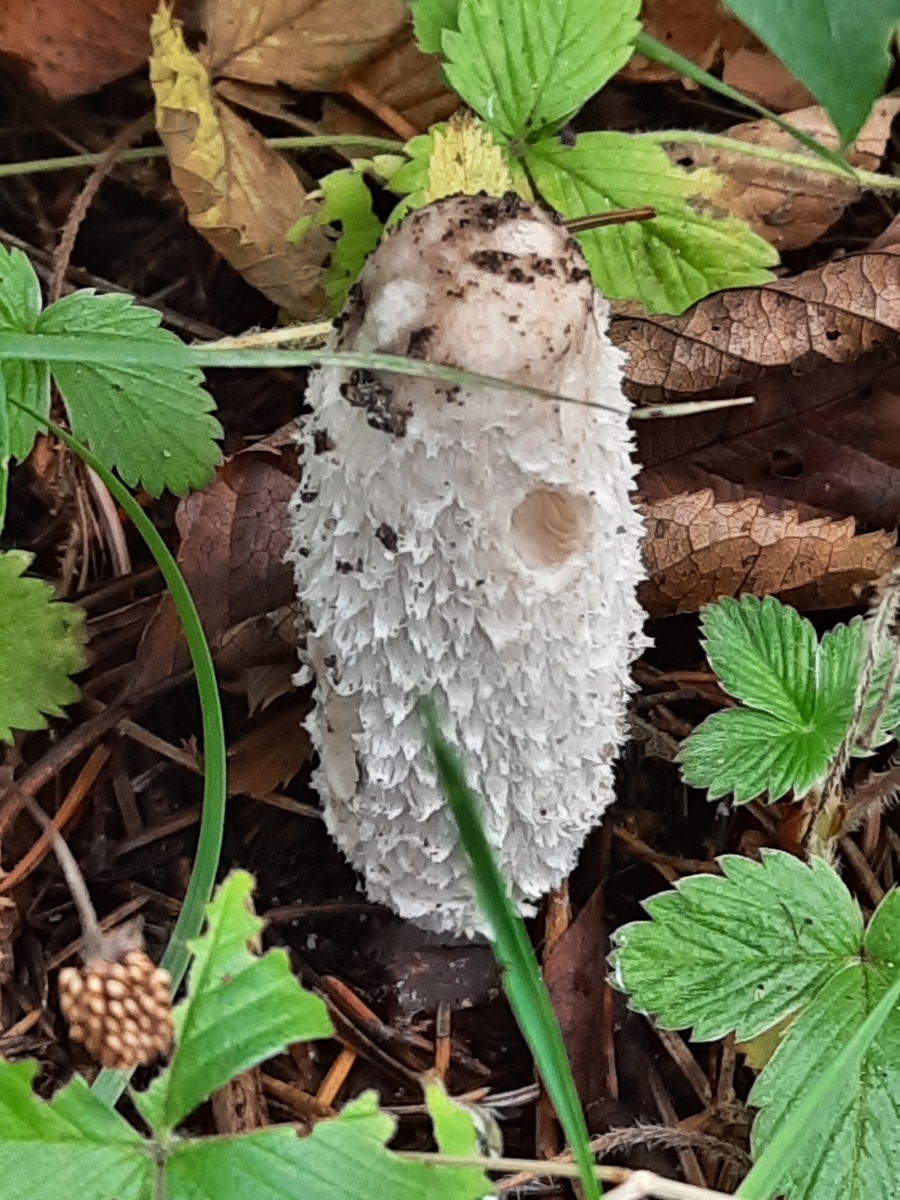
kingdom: Fungi
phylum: Basidiomycota
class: Agaricomycetes
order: Agaricales
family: Agaricaceae
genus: Coprinus
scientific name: Coprinus comatus
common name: stor parykhat
